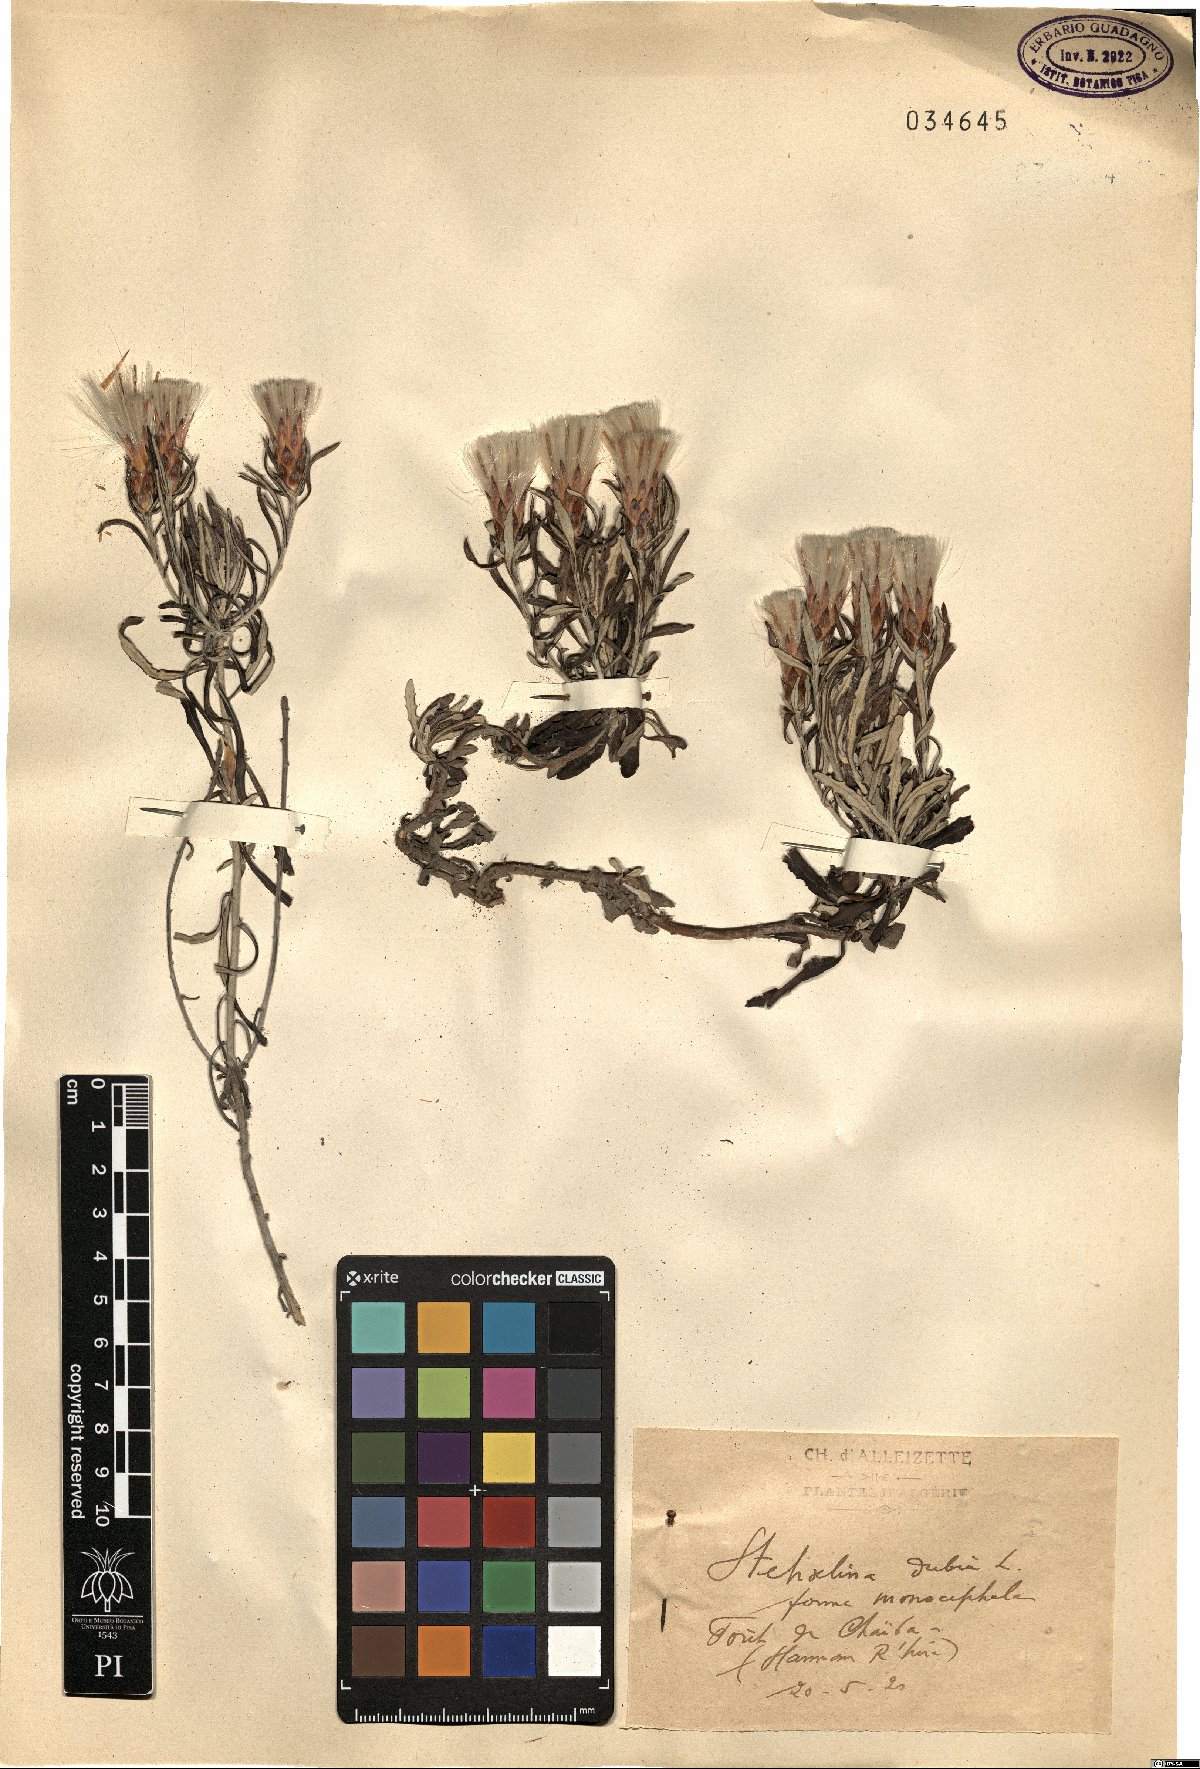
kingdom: Plantae
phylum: Tracheophyta
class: Magnoliopsida
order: Asterales
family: Asteraceae
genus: Staehelina
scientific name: Staehelina dubia
